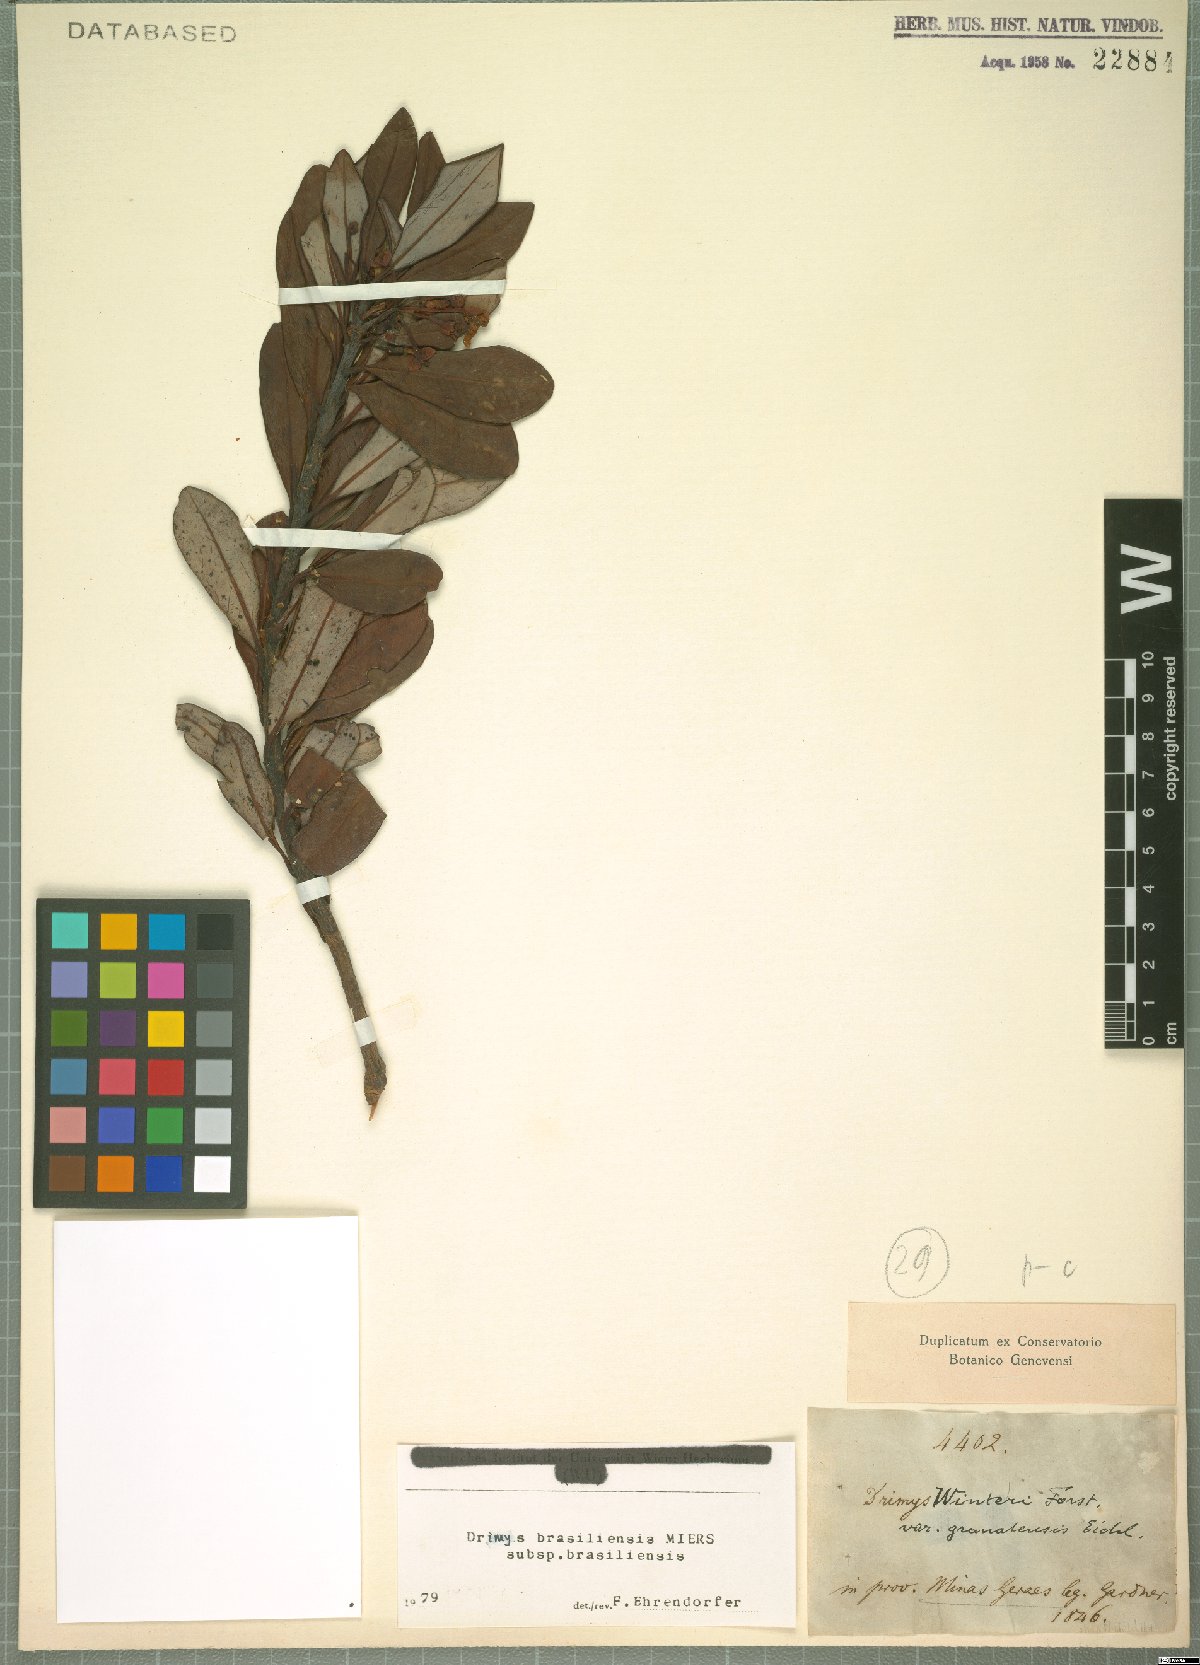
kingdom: Plantae
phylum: Tracheophyta
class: Magnoliopsida
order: Canellales
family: Winteraceae
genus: Drimys
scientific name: Drimys brasiliensis
